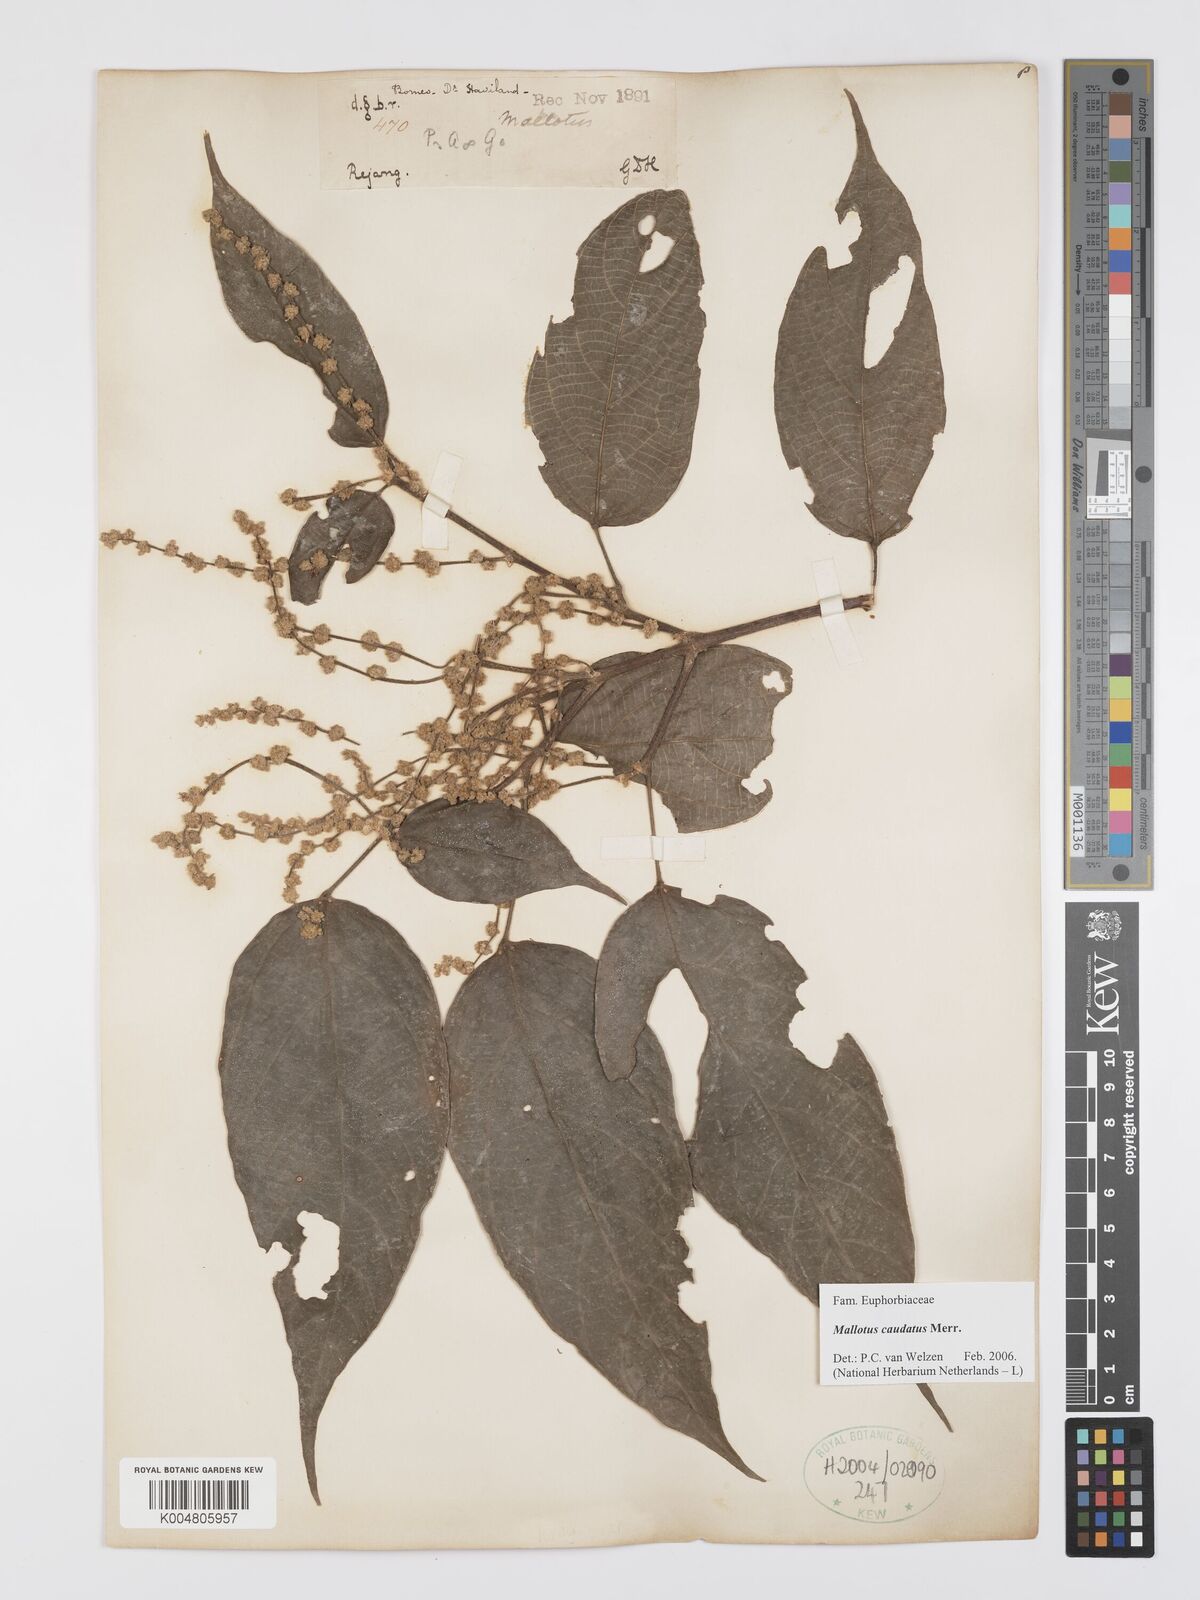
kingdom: Plantae
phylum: Tracheophyta
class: Magnoliopsida
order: Malpighiales
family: Euphorbiaceae
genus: Mallotus
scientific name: Mallotus caudatus
